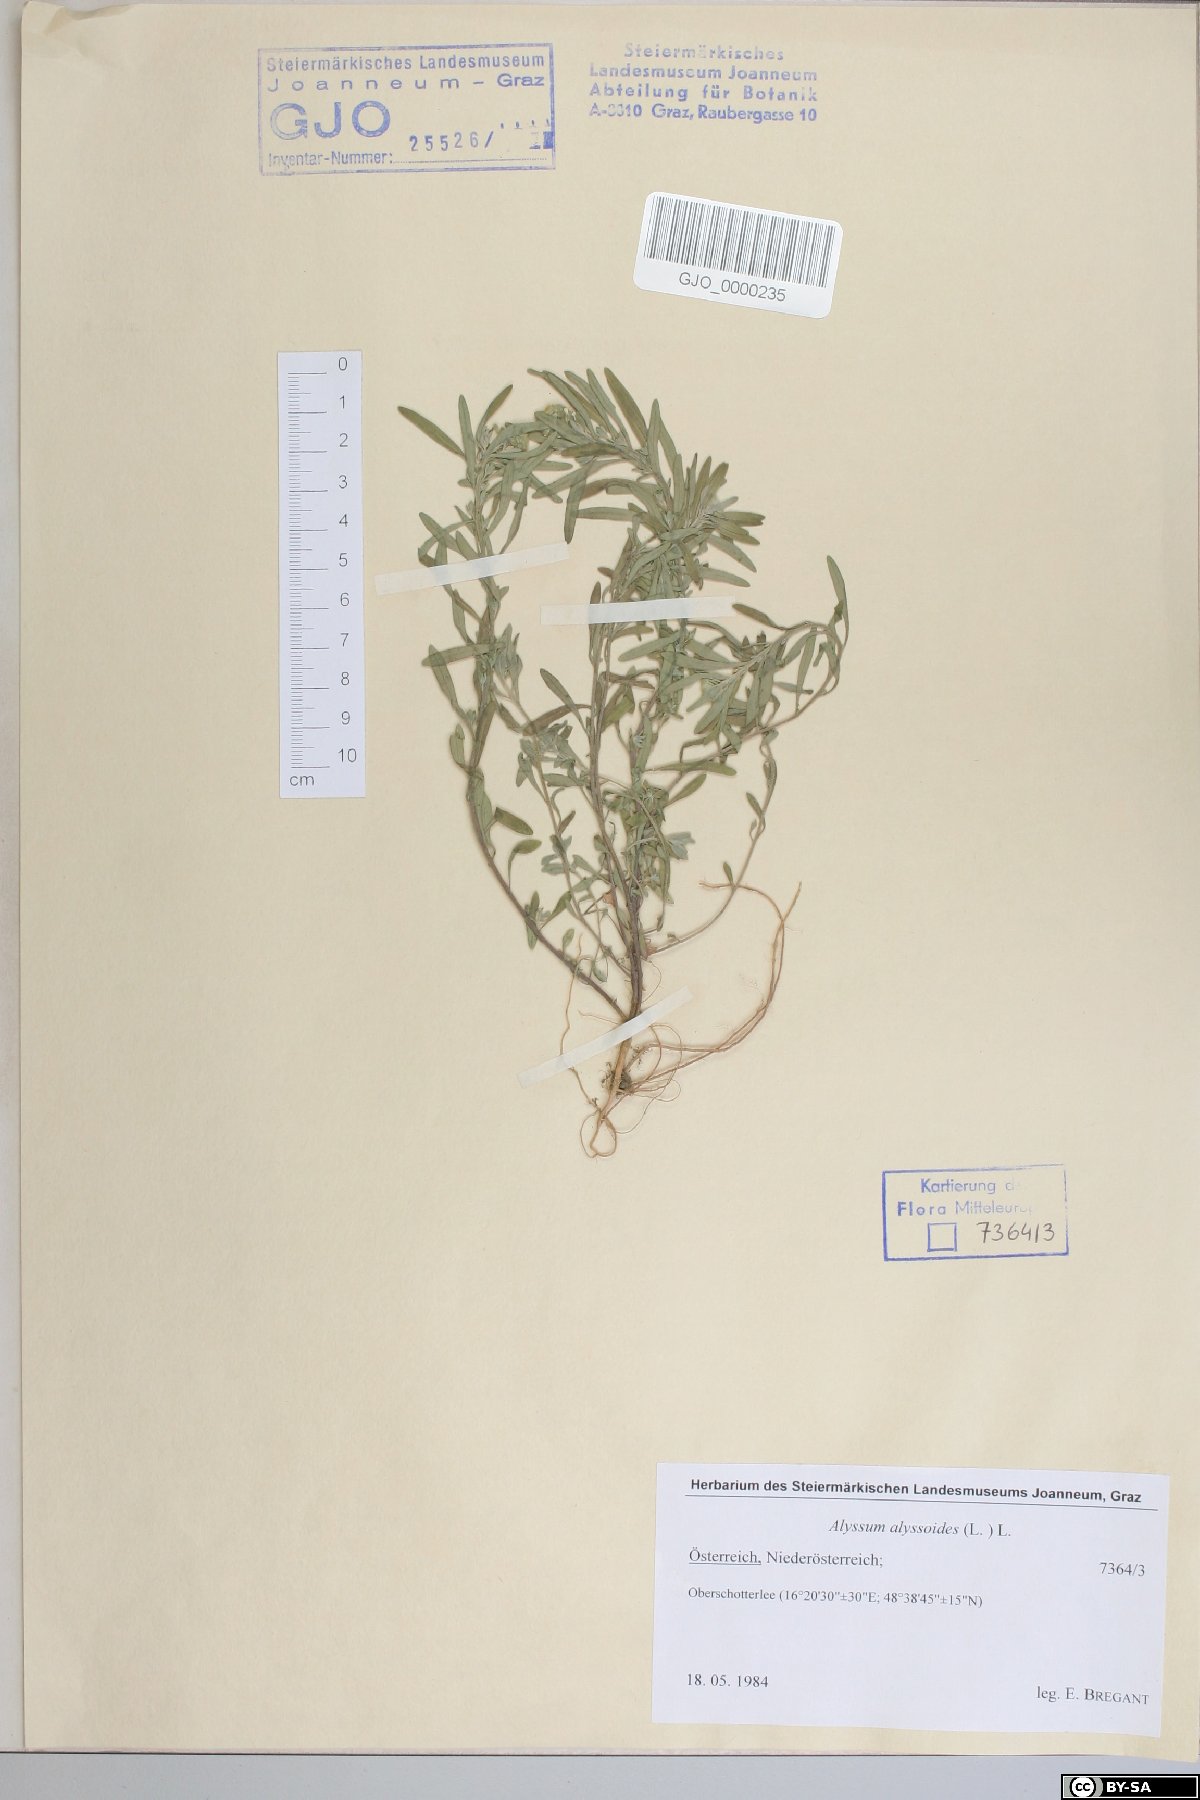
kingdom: Plantae
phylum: Tracheophyta
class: Magnoliopsida
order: Brassicales
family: Brassicaceae
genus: Alyssum
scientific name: Alyssum alyssoides
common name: Small alison
